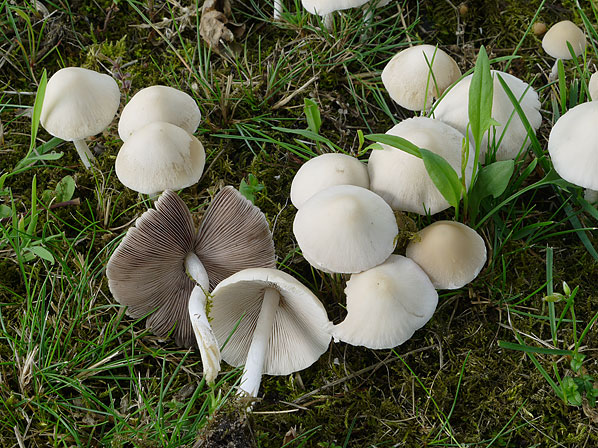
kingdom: Fungi
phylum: Basidiomycota
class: Agaricomycetes
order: Agaricales
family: Psathyrellaceae
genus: Candolleomyces
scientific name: Candolleomyces candolleanus
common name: Candolles mørkhat
